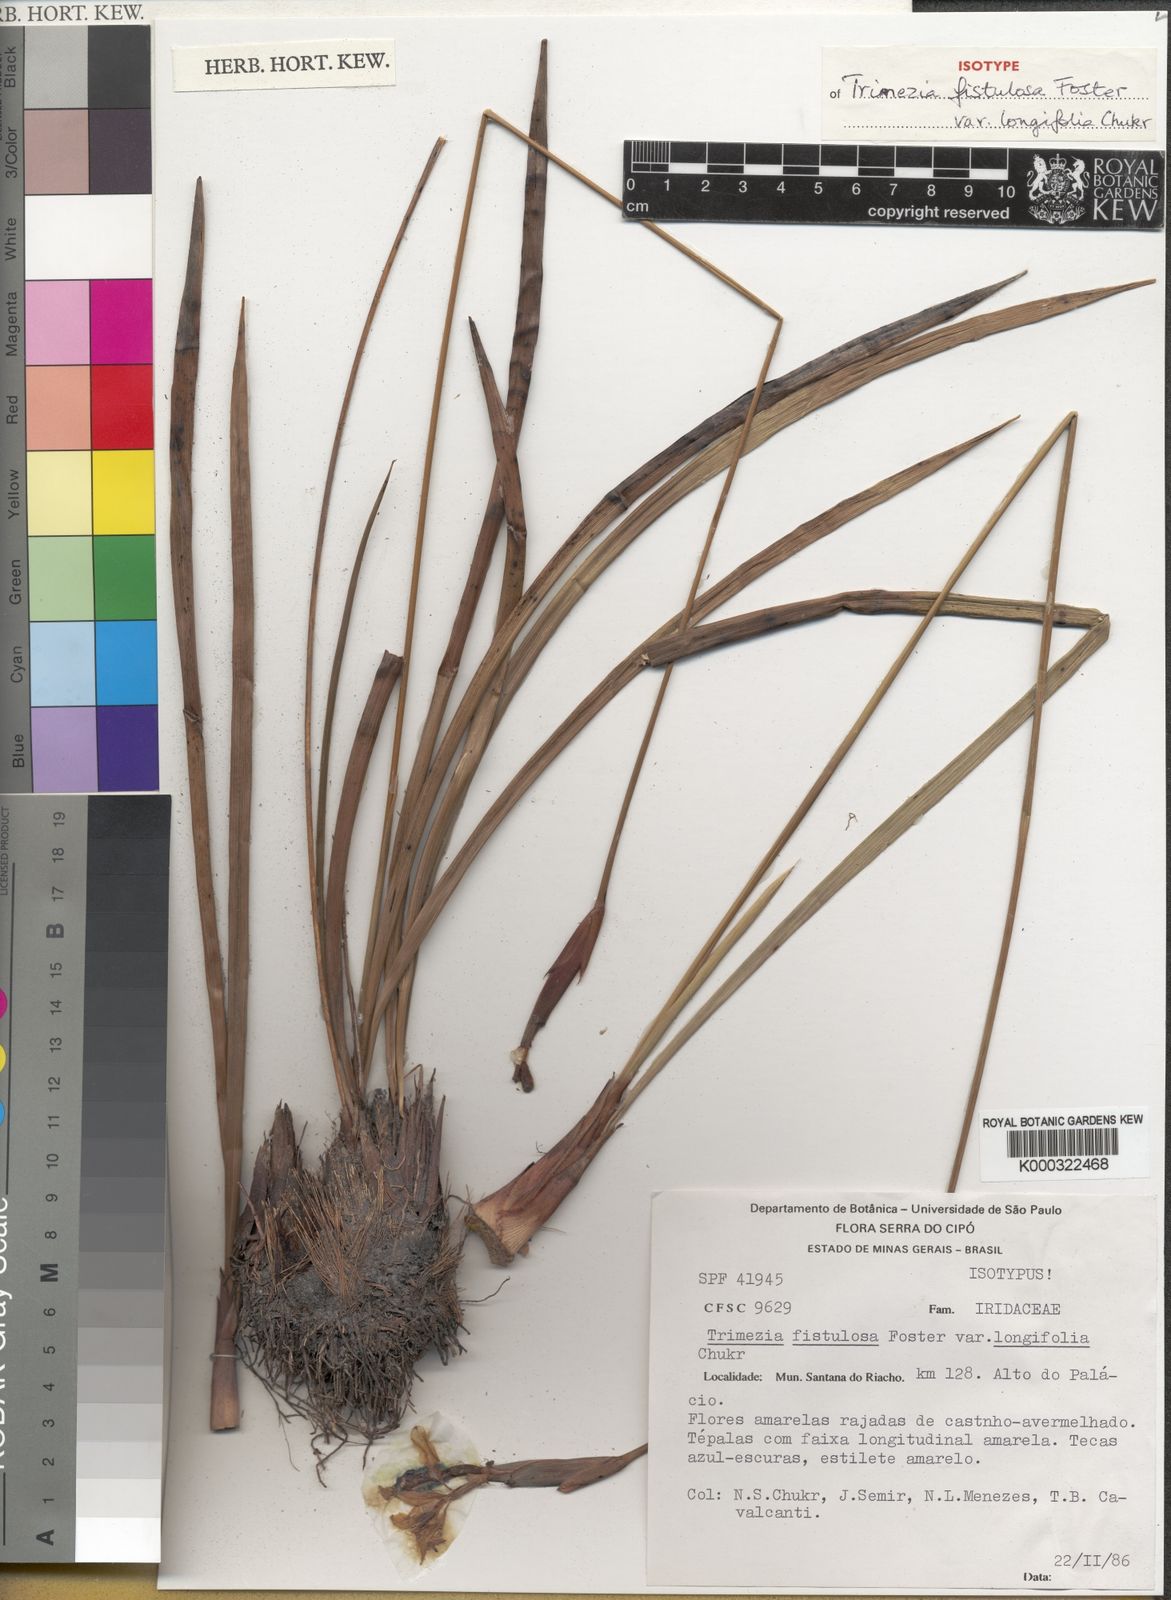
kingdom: Plantae
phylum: Tracheophyta
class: Liliopsida
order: Asparagales
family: Iridaceae
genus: Trimezia
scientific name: Trimezia fistulosa
